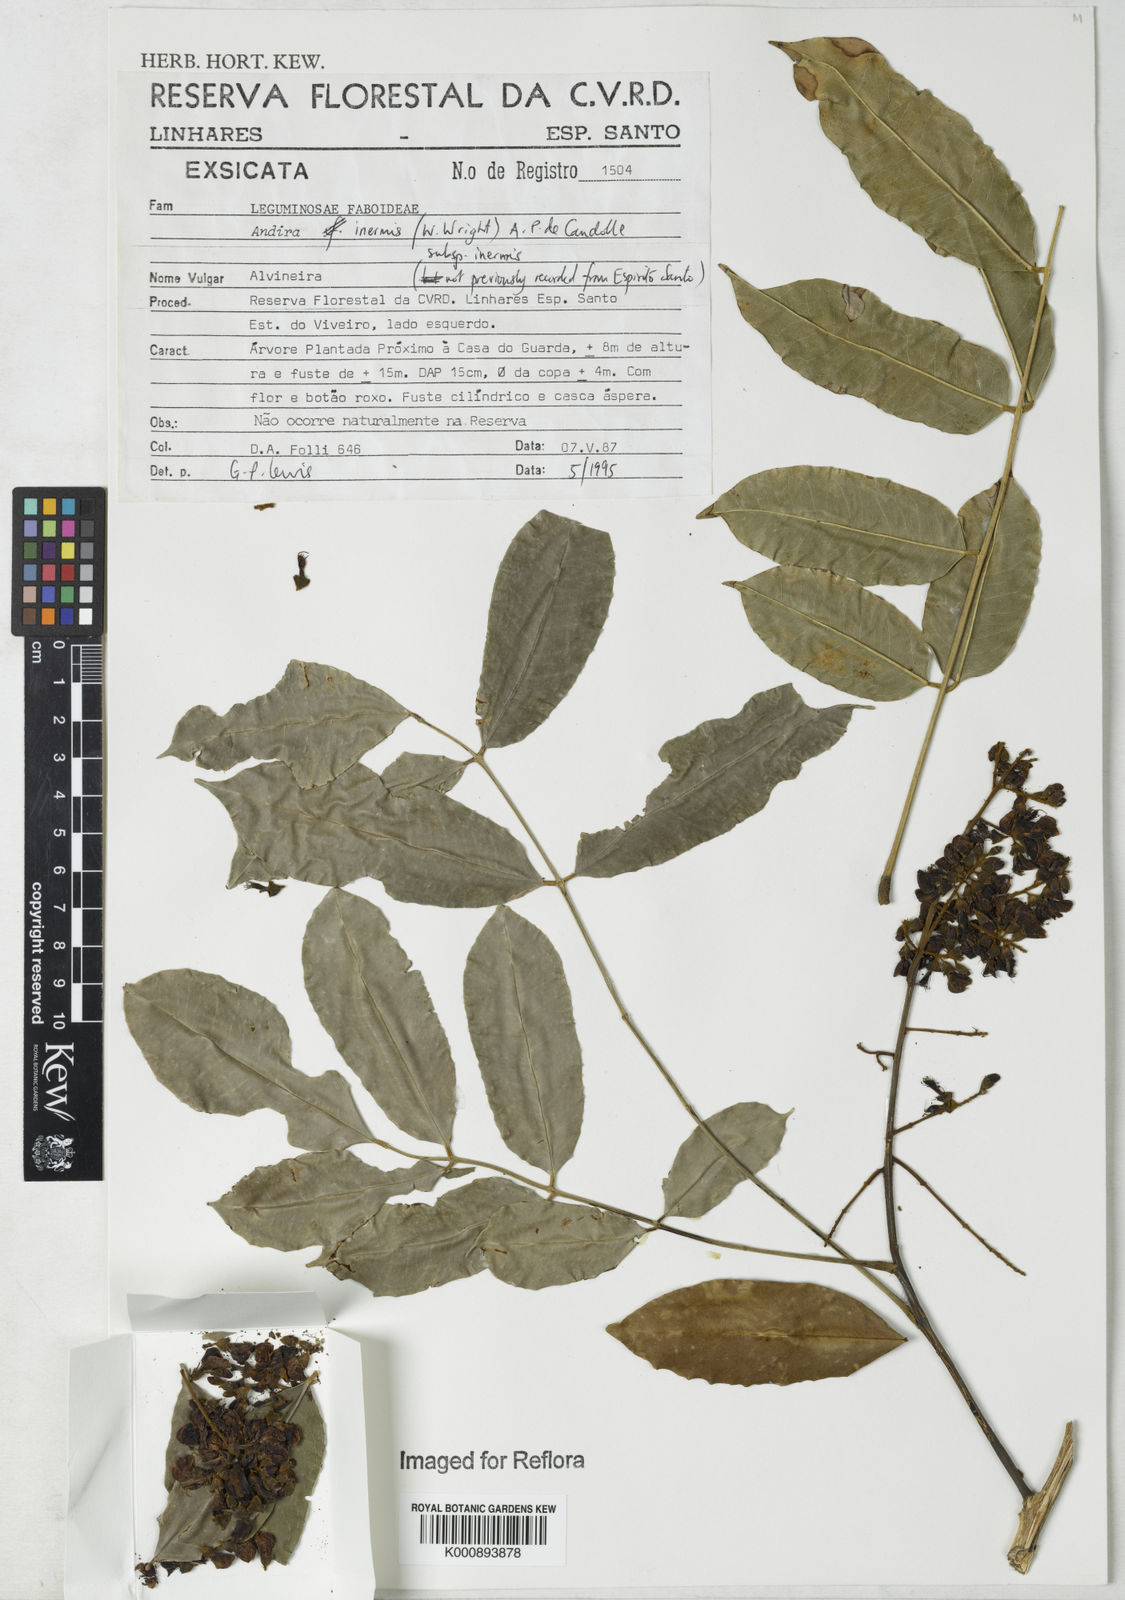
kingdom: Plantae
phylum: Tracheophyta
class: Magnoliopsida
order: Fabales
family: Fabaceae
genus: Andira
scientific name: Andira inermis
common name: Angelin
